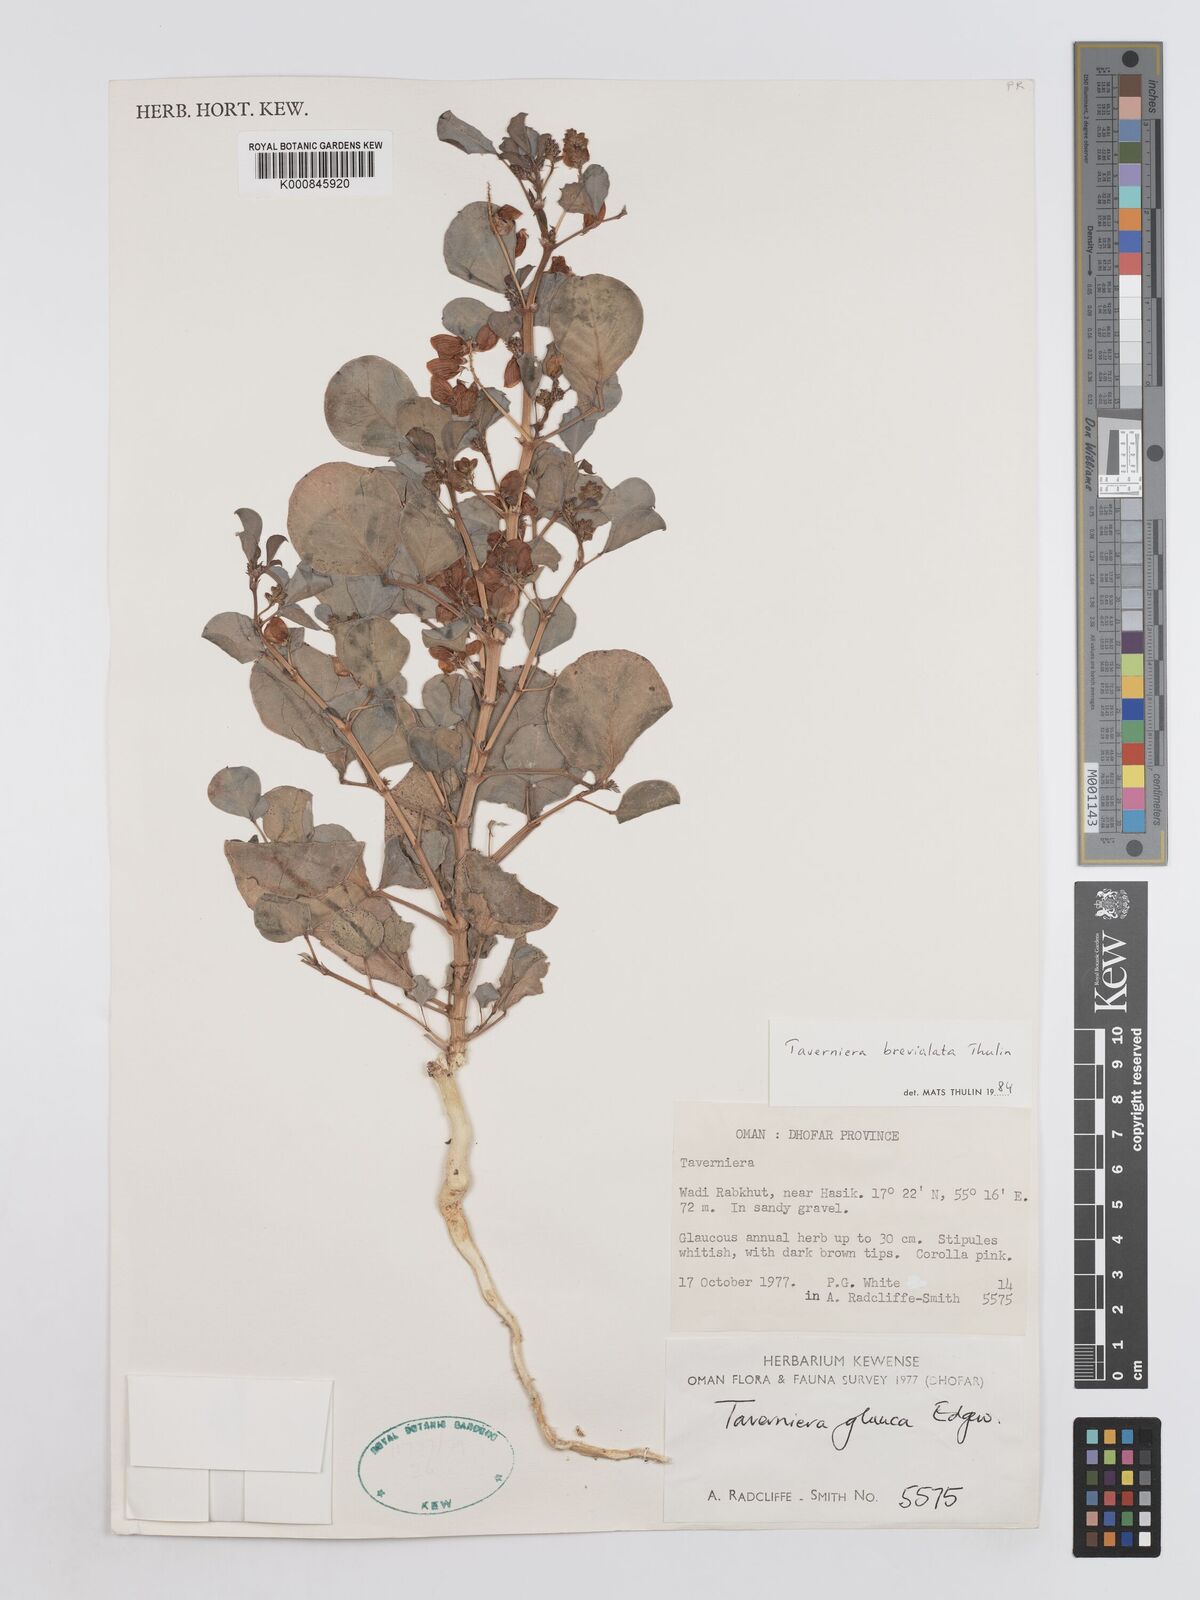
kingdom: Plantae
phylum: Tracheophyta
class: Magnoliopsida
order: Fabales
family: Fabaceae
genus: Taverniera
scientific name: Taverniera brevialata
